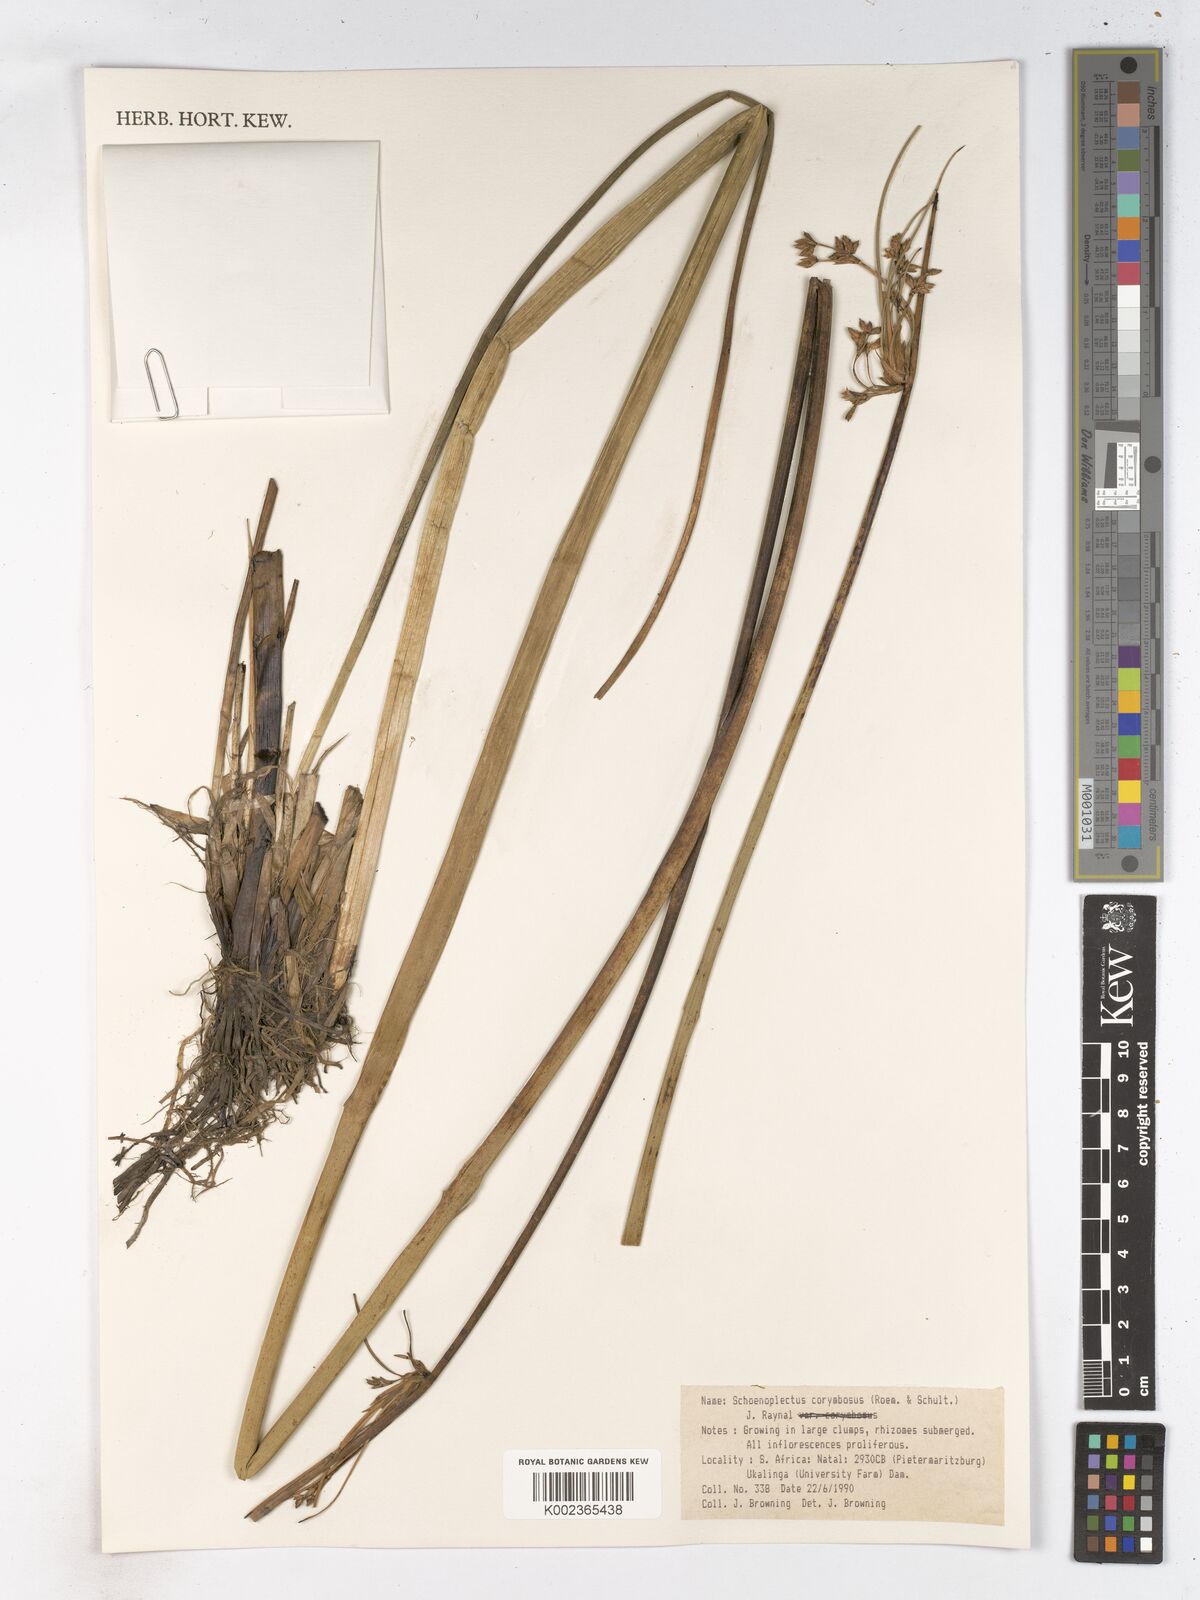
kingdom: Plantae
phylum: Tracheophyta
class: Liliopsida
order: Poales
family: Cyperaceae
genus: Schoenoplectiella
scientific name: Schoenoplectiella brachyceras
